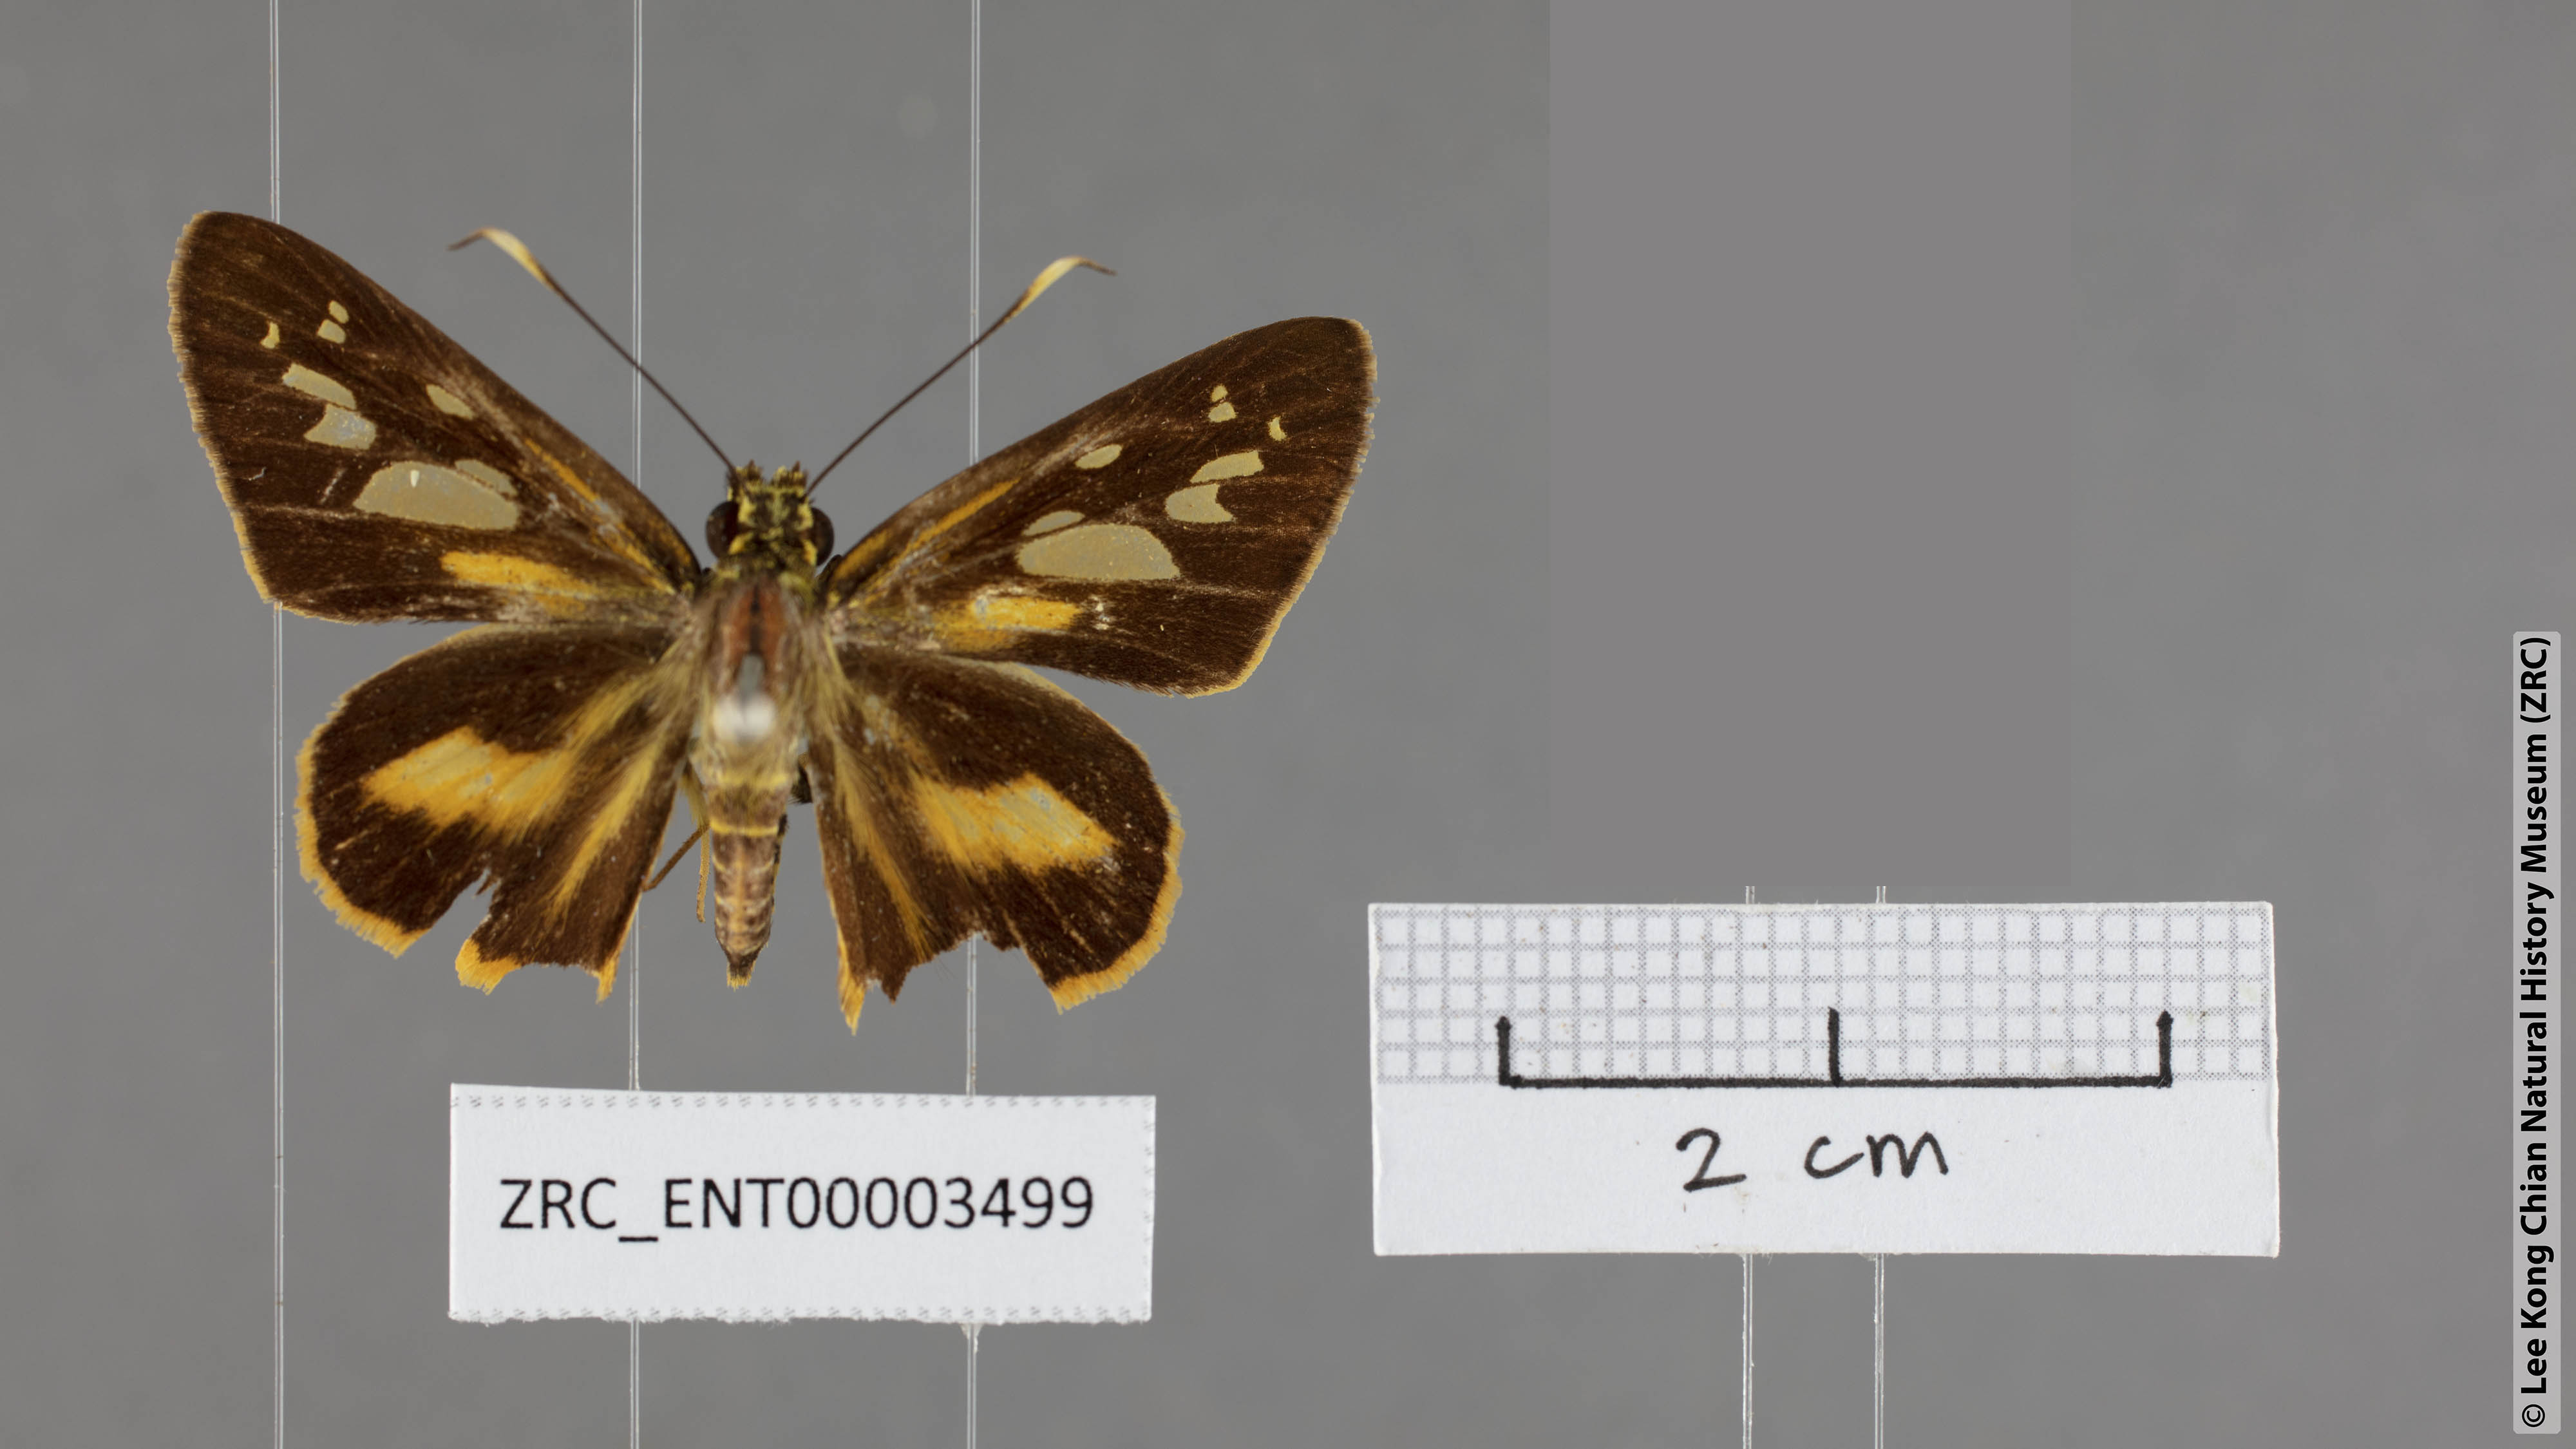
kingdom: Animalia
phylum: Arthropoda
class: Insecta
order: Lepidoptera
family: Hesperiidae
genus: Pyroneura
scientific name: Pyroneura derna
